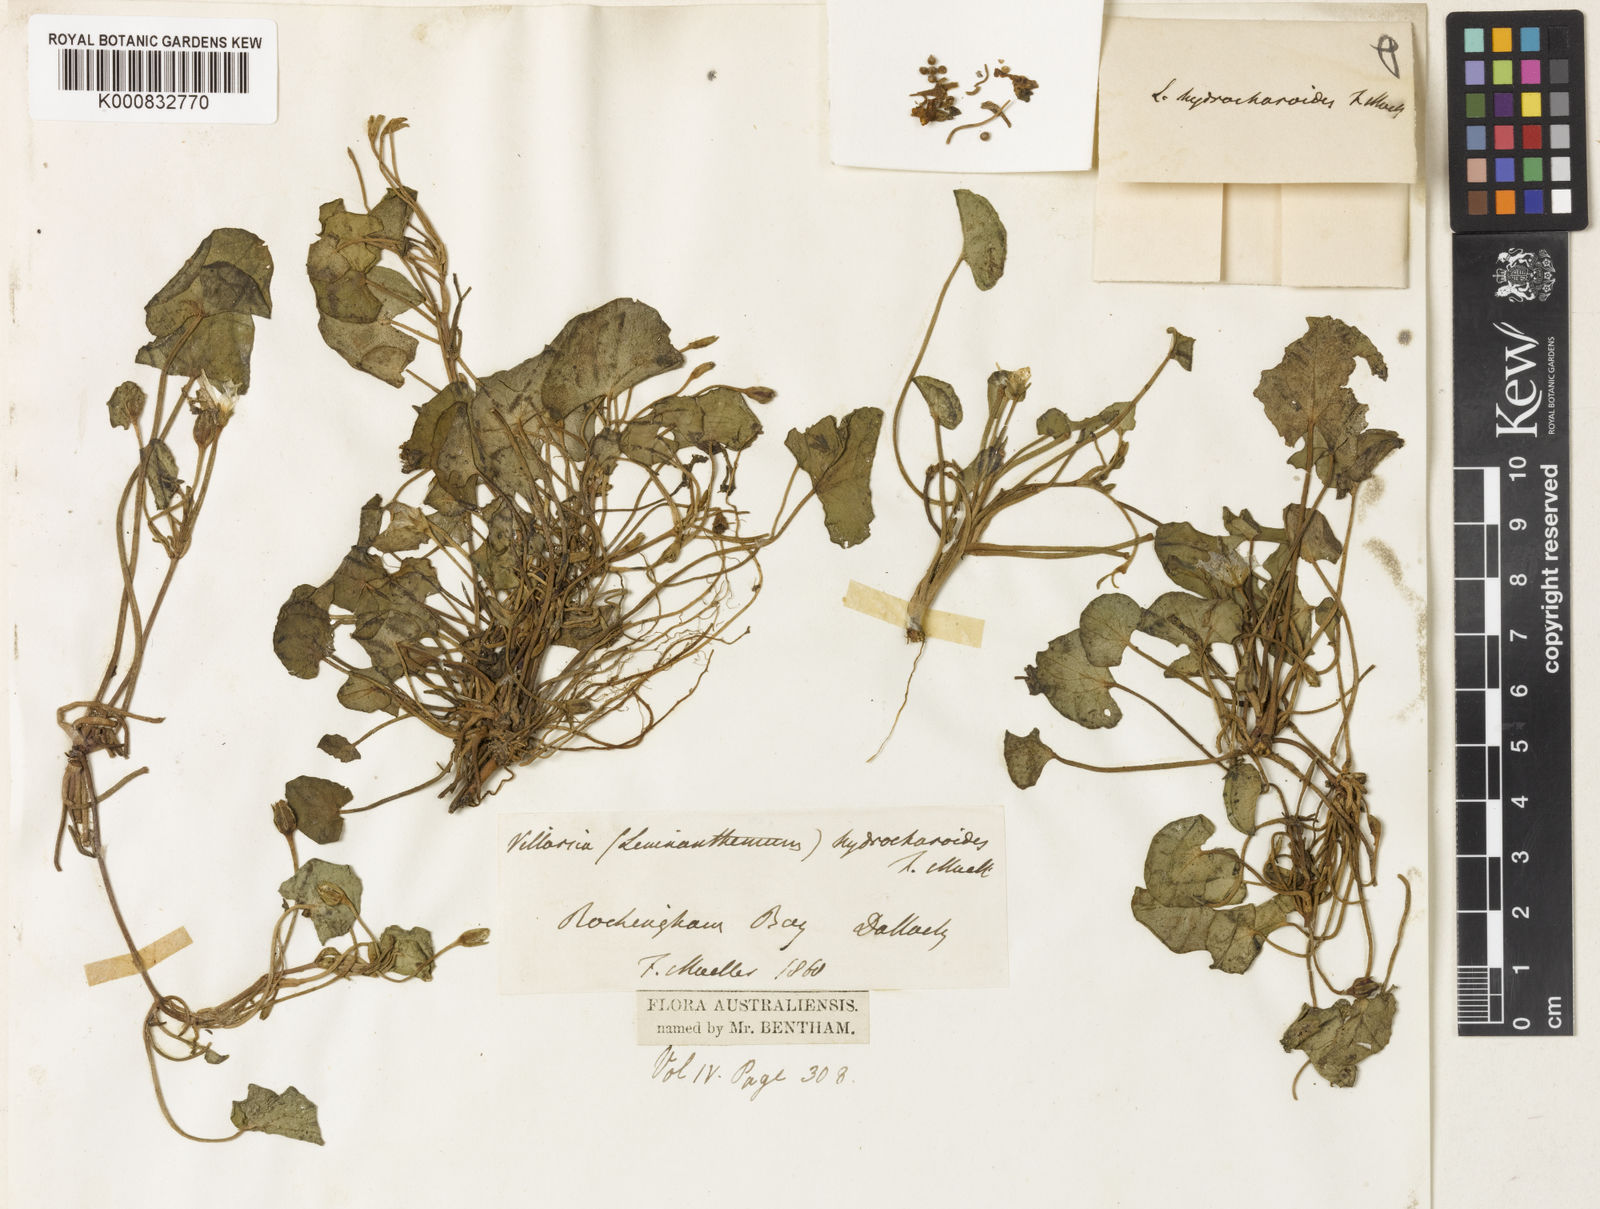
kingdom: Plantae
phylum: Tracheophyta
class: Magnoliopsida
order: Asterales
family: Menyanthaceae
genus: Nymphoides
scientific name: Nymphoides aurantiaca
